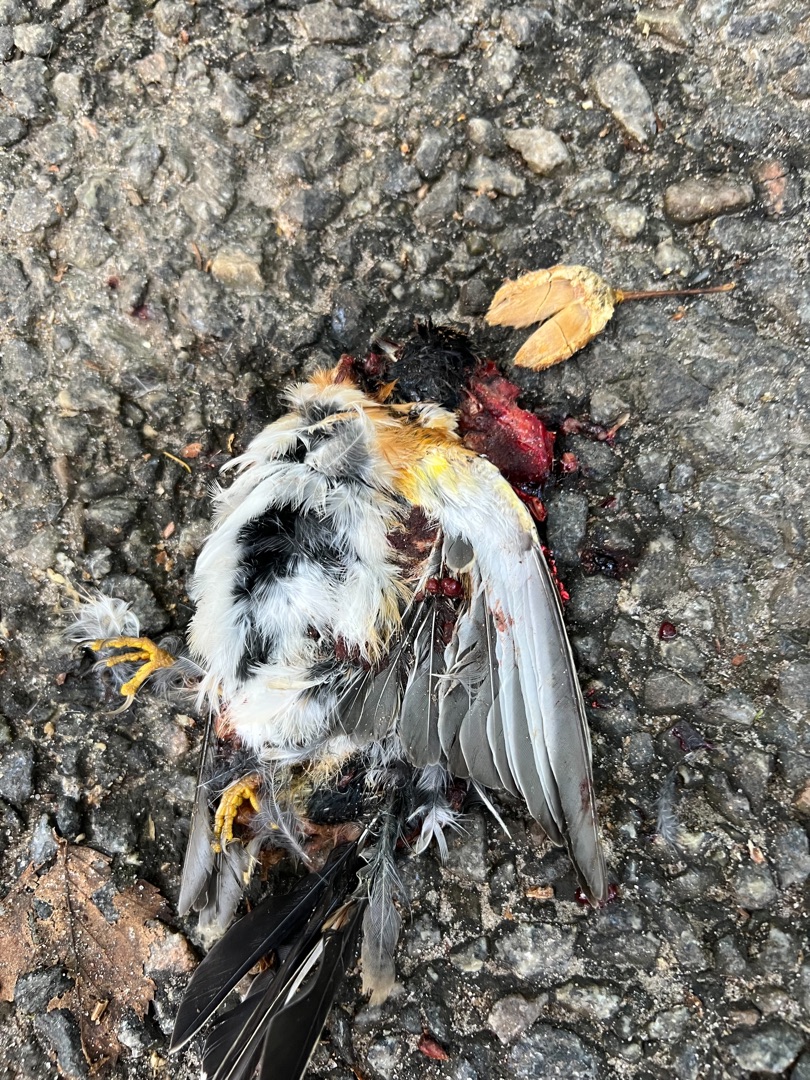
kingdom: Animalia
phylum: Chordata
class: Aves
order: Passeriformes
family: Fringillidae
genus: Fringilla
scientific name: Fringilla montifringilla
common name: Kvækerfinke
